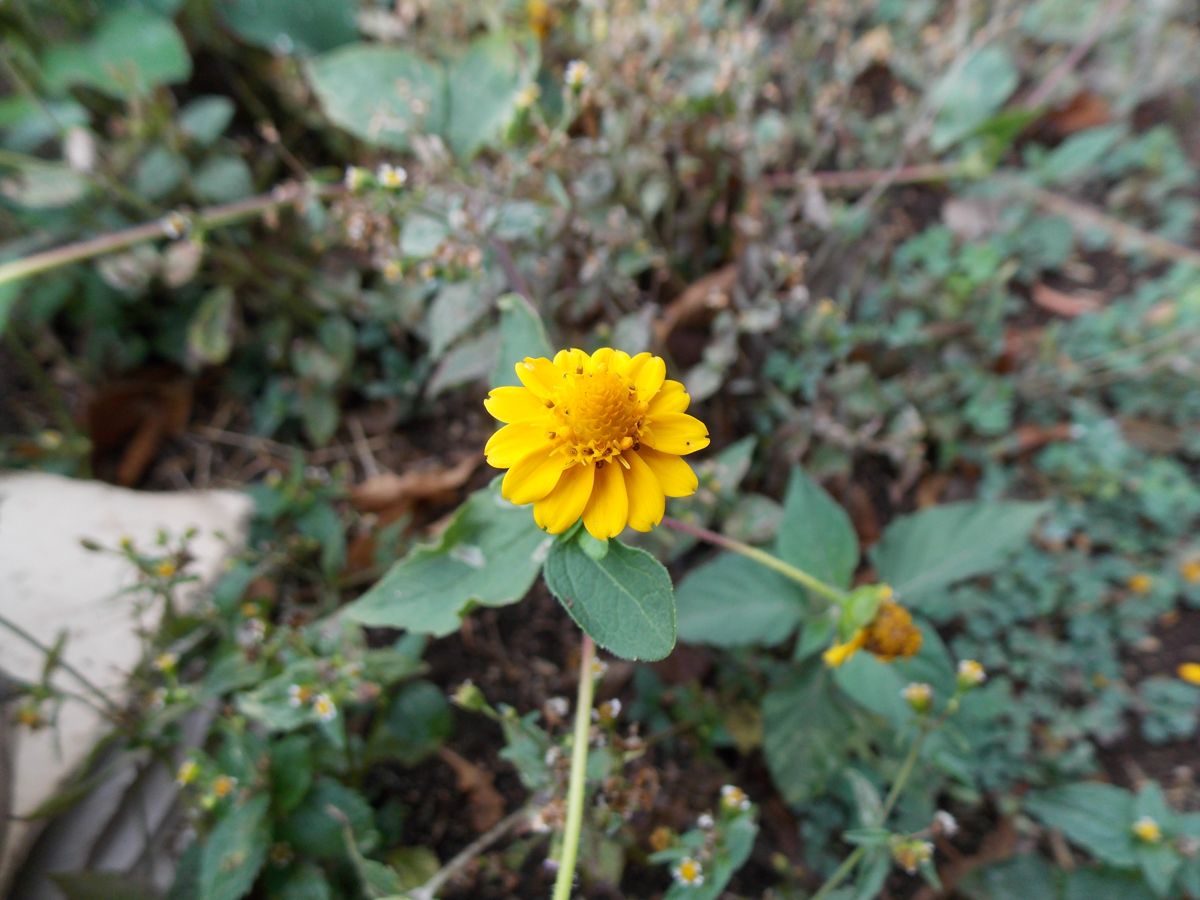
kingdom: Plantae
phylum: Tracheophyta
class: Magnoliopsida
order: Asterales
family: Asteraceae
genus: Melampodium
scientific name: Melampodium divaricatum
